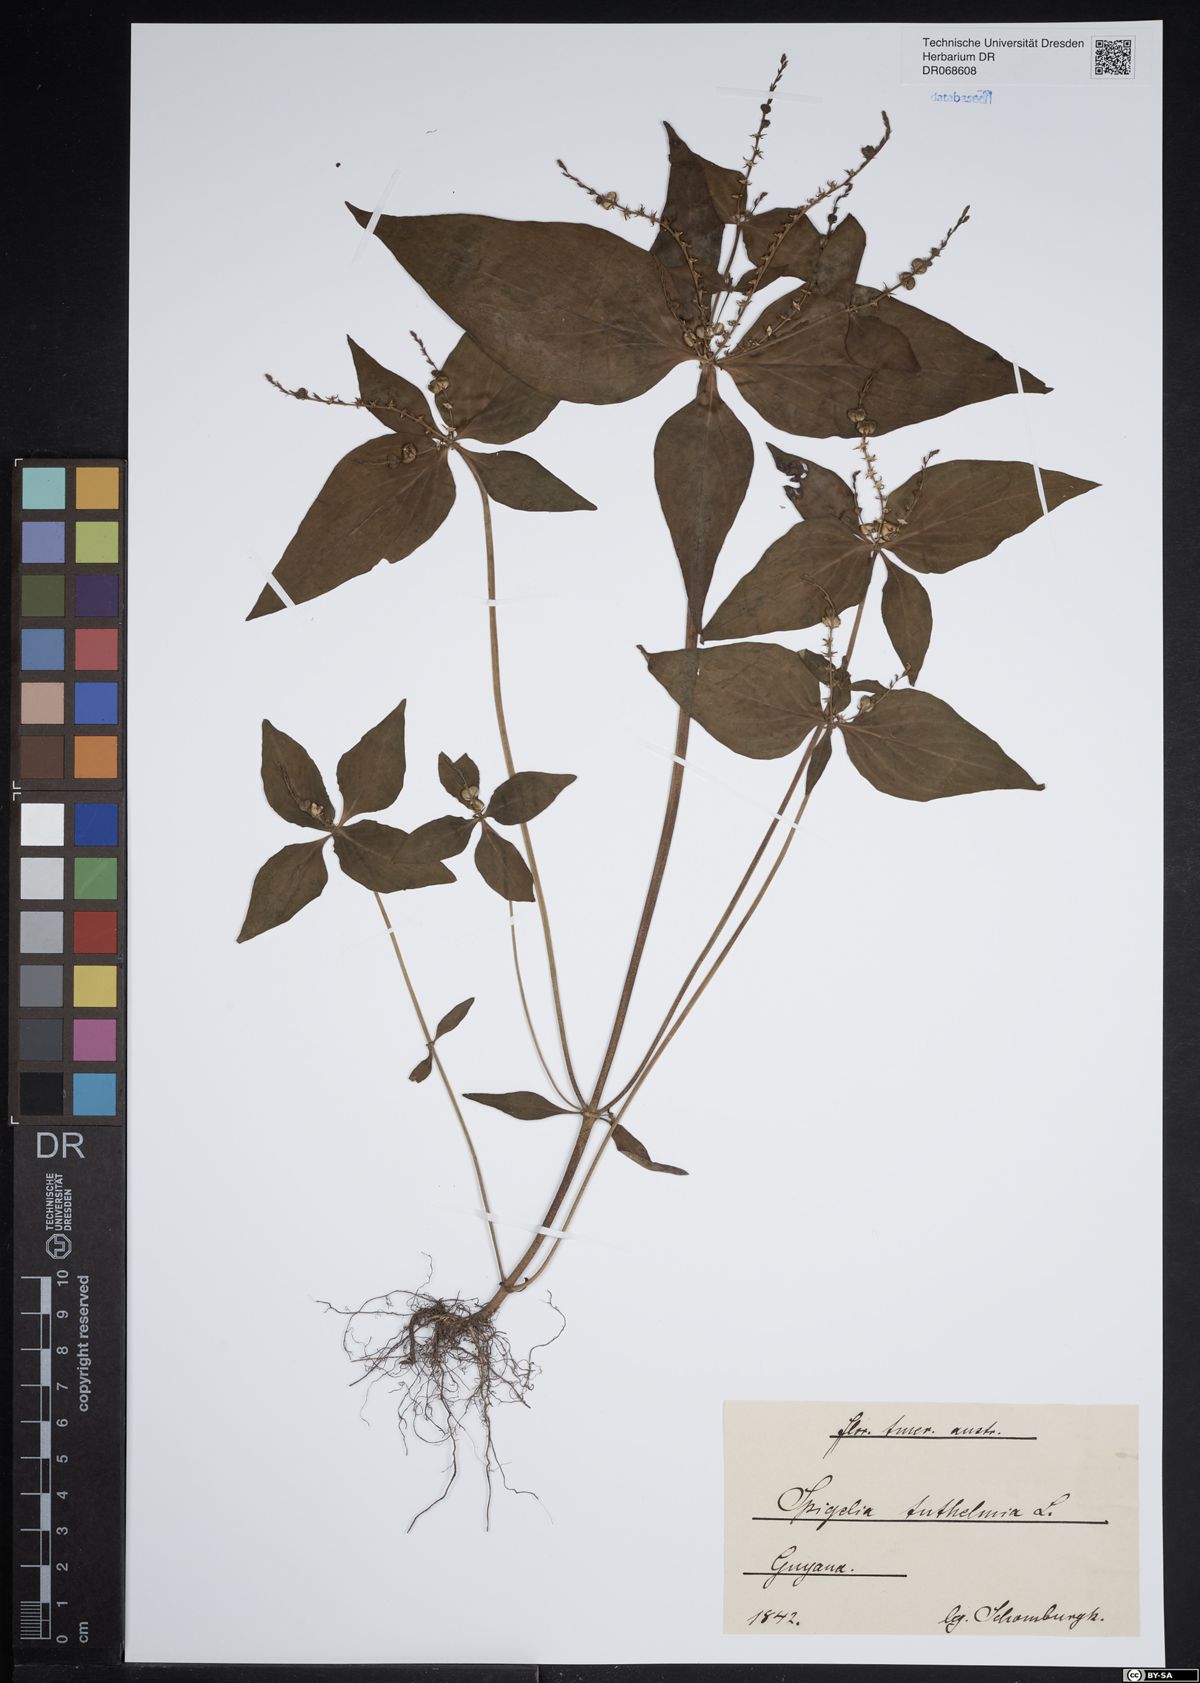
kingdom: Plantae
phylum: Tracheophyta
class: Magnoliopsida
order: Gentianales
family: Loganiaceae
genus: Spigelia
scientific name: Spigelia anthelmia
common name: West indian-pink
